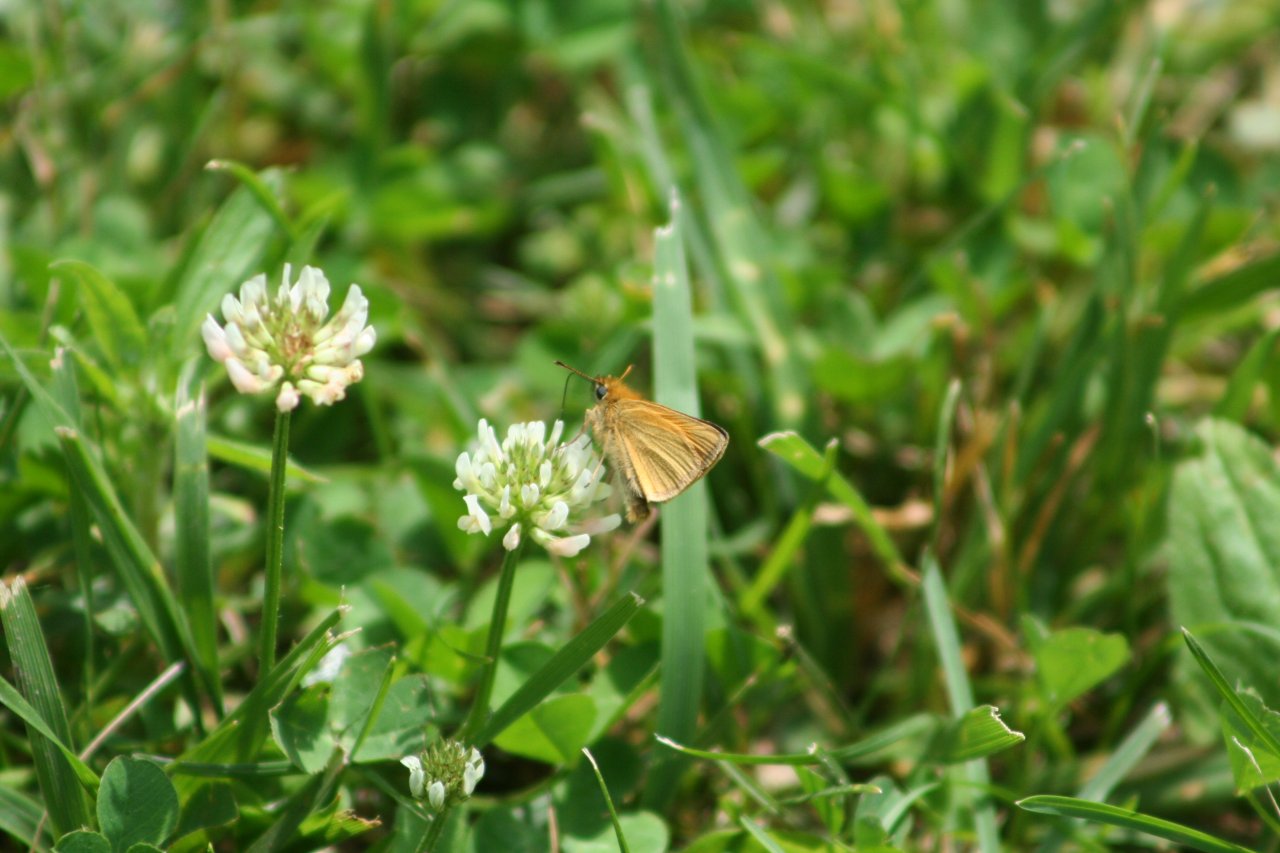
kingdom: Animalia
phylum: Arthropoda
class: Insecta
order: Lepidoptera
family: Hesperiidae
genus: Thymelicus
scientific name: Thymelicus lineola
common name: European Skipper
